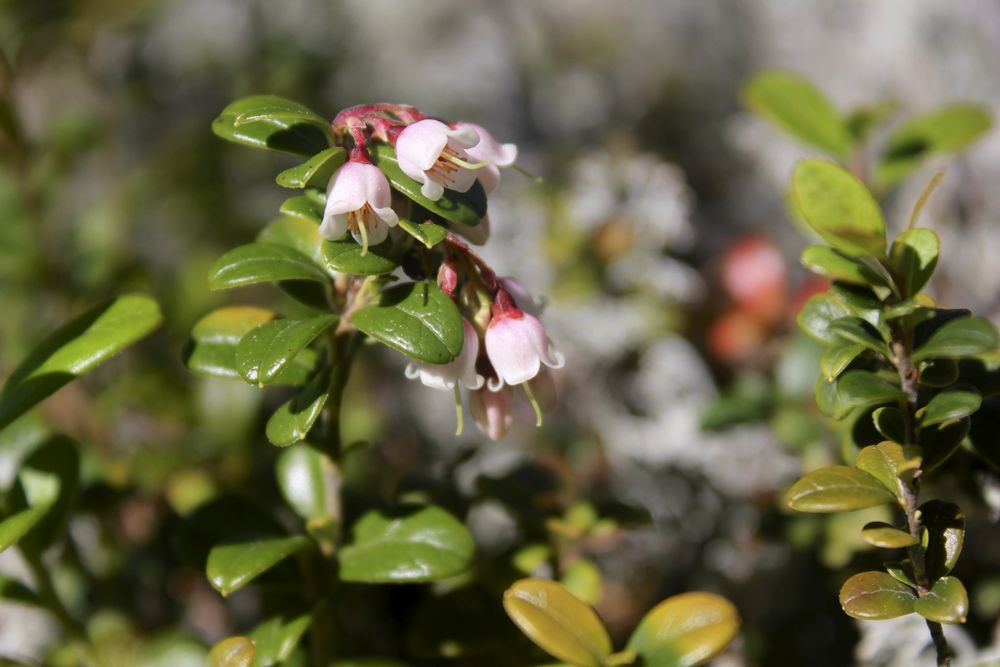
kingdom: Plantae
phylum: Tracheophyta
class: Magnoliopsida
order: Ericales
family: Ericaceae
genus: Vaccinium
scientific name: Vaccinium vitis-idaea
